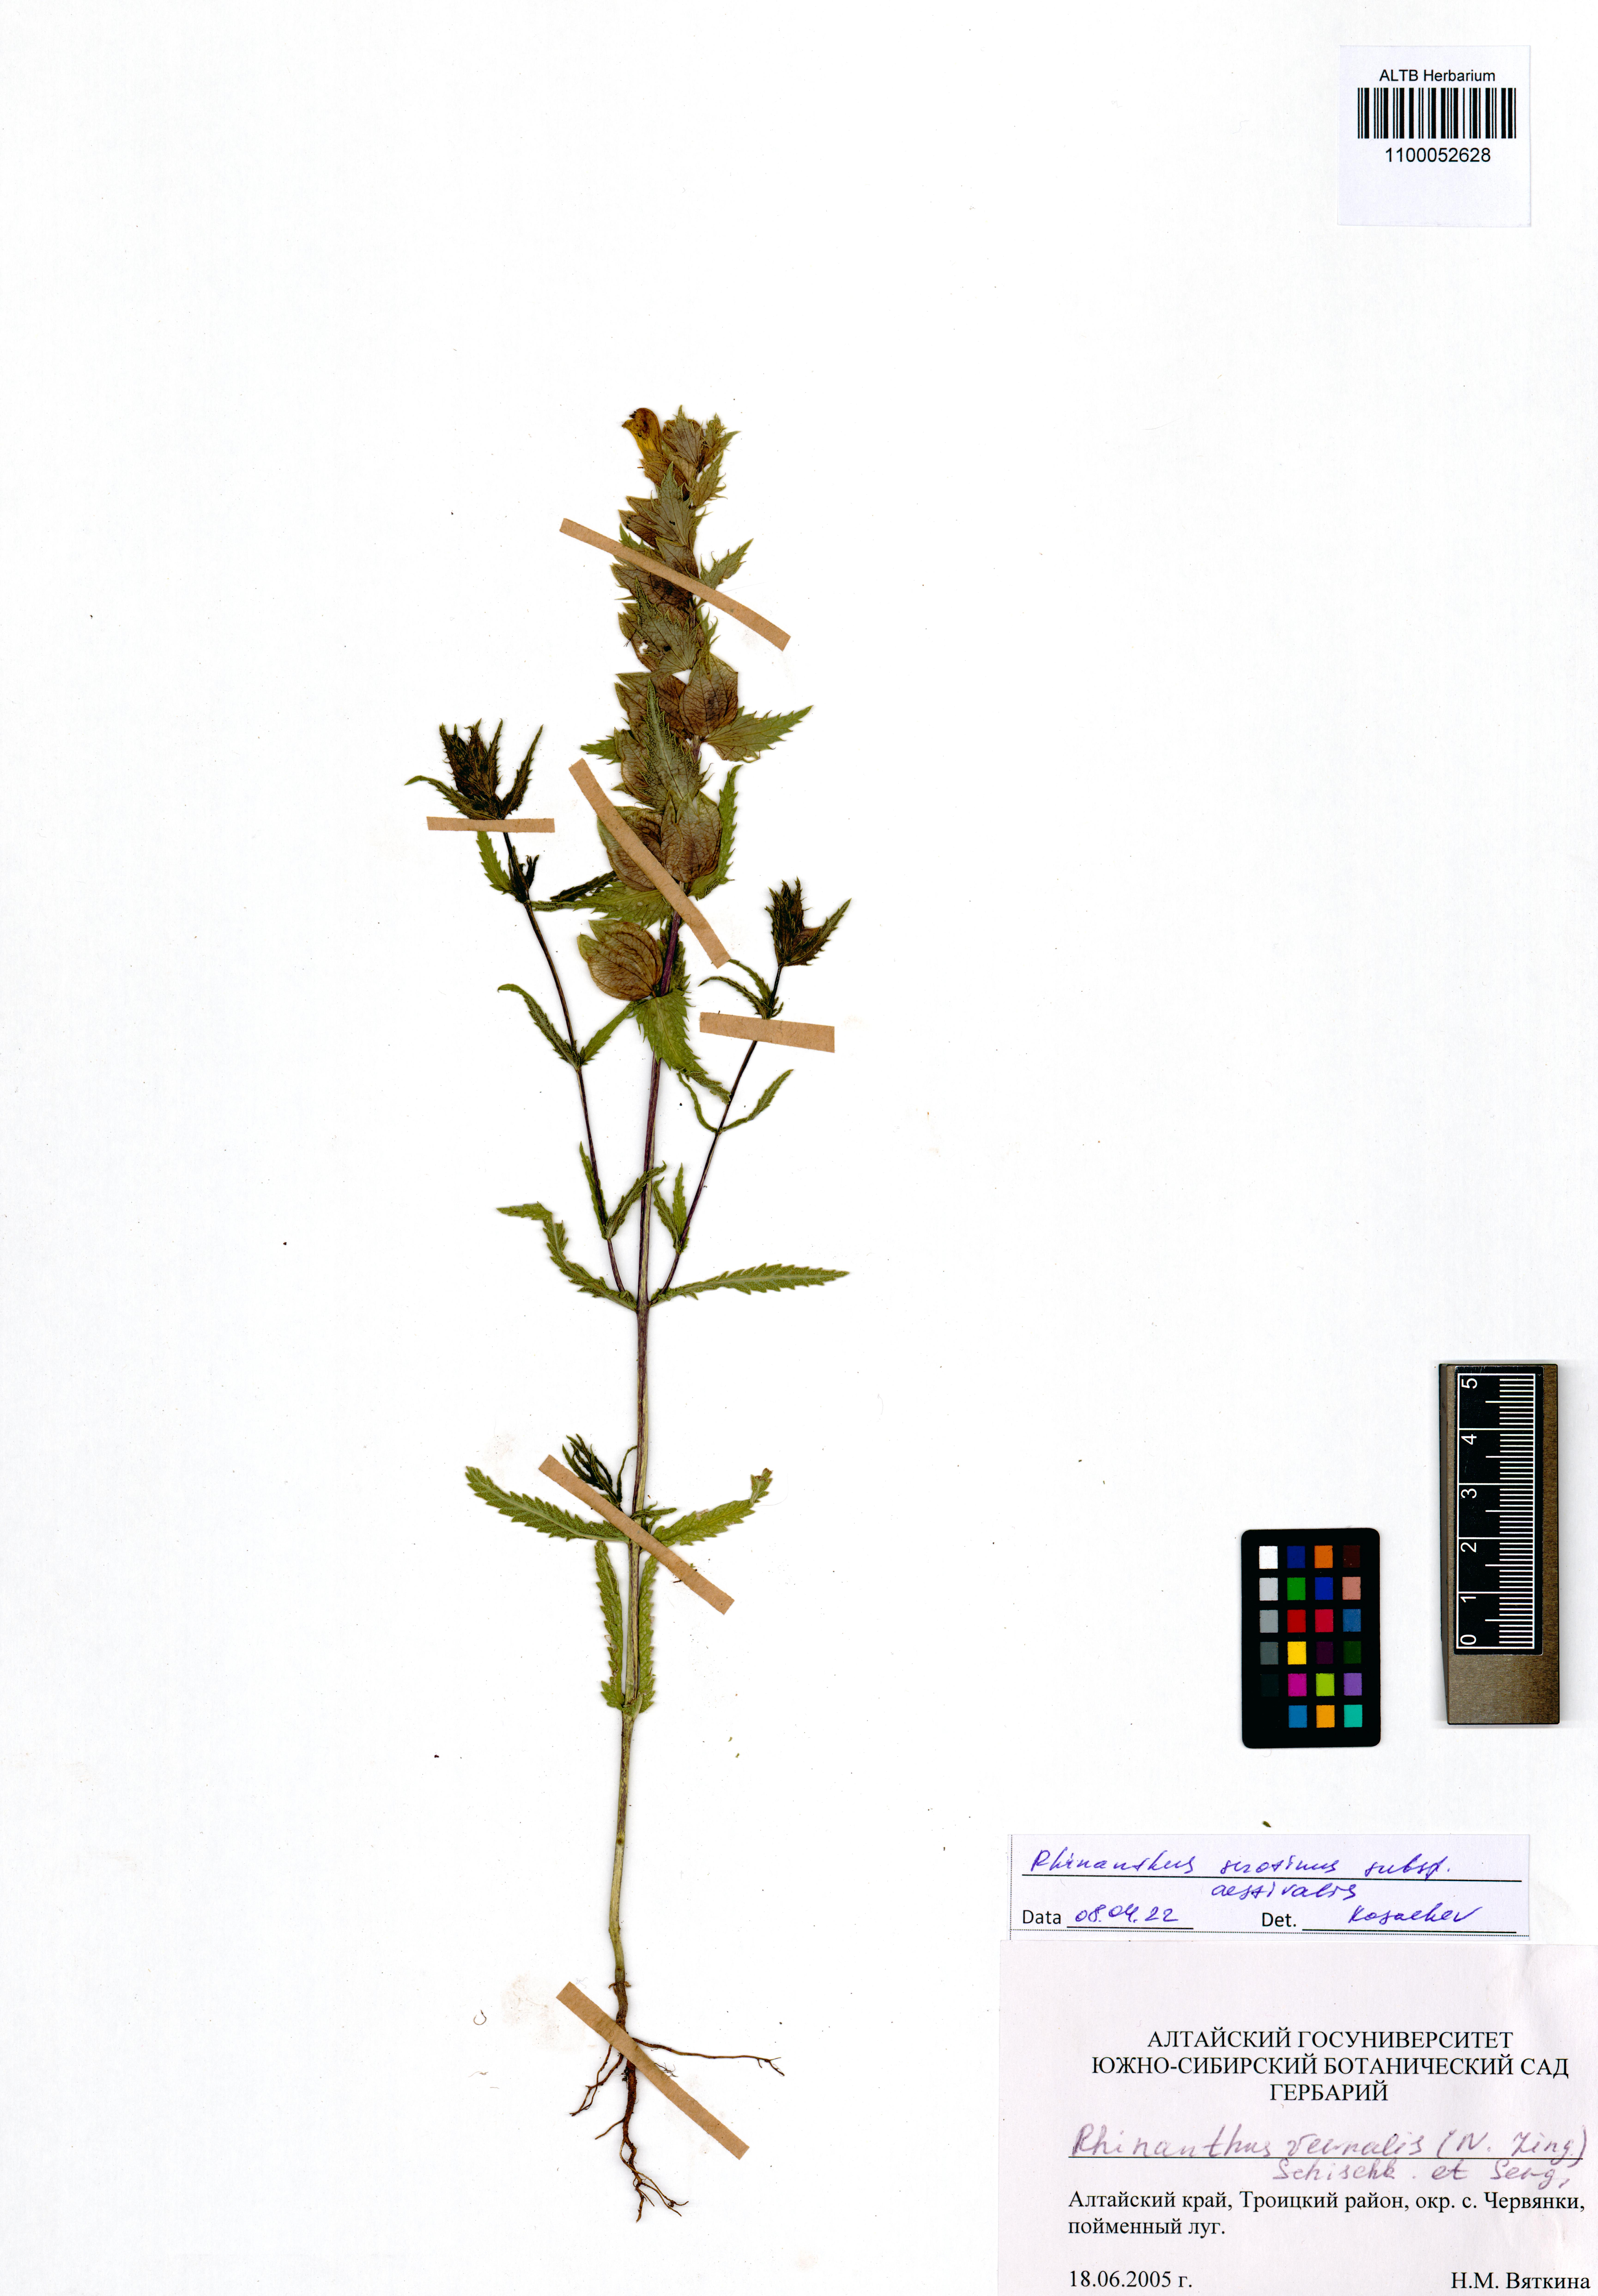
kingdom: Plantae
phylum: Tracheophyta
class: Magnoliopsida
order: Lamiales
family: Orobanchaceae
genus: Rhinanthus
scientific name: Rhinanthus serotinus
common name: Late-flowering yellow rattle
